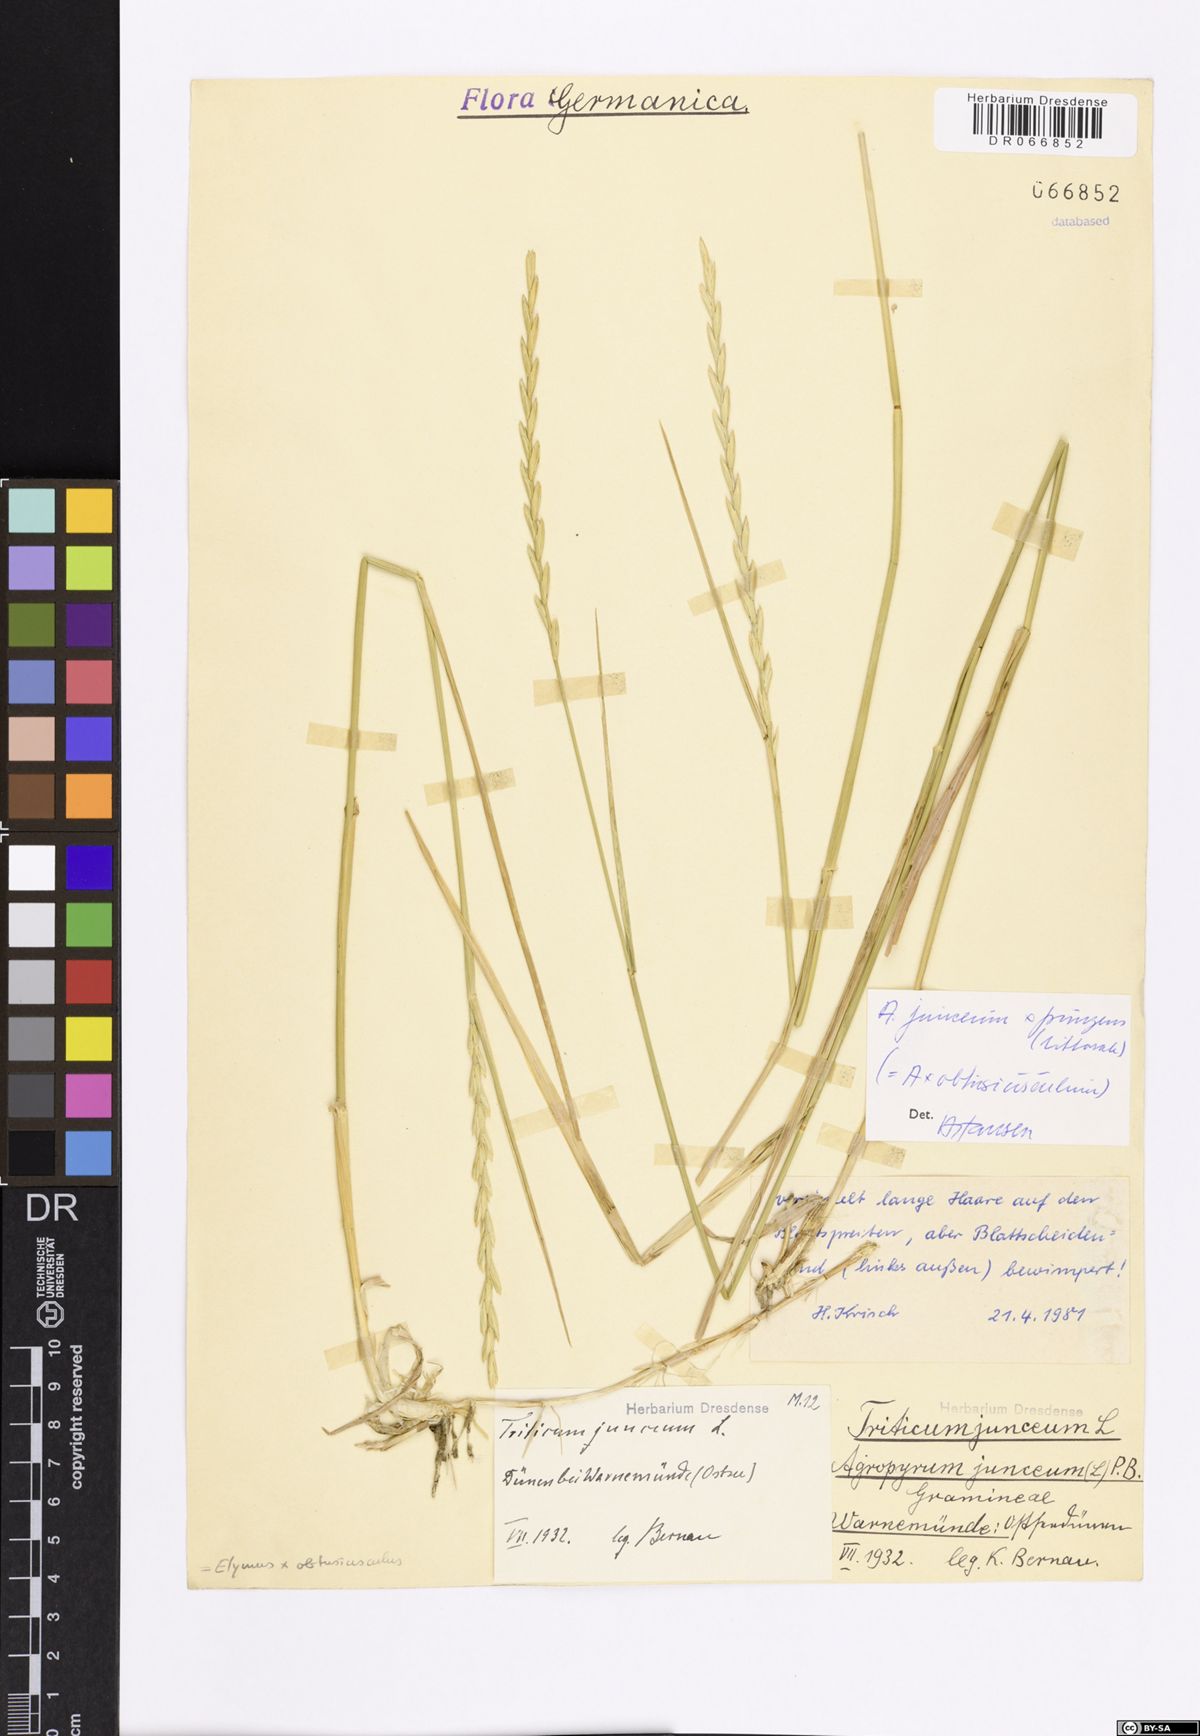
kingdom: Plantae
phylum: Tracheophyta
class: Liliopsida
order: Poales
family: Poaceae
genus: Thinoelymus
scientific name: Thinoelymus obtusiusculus
